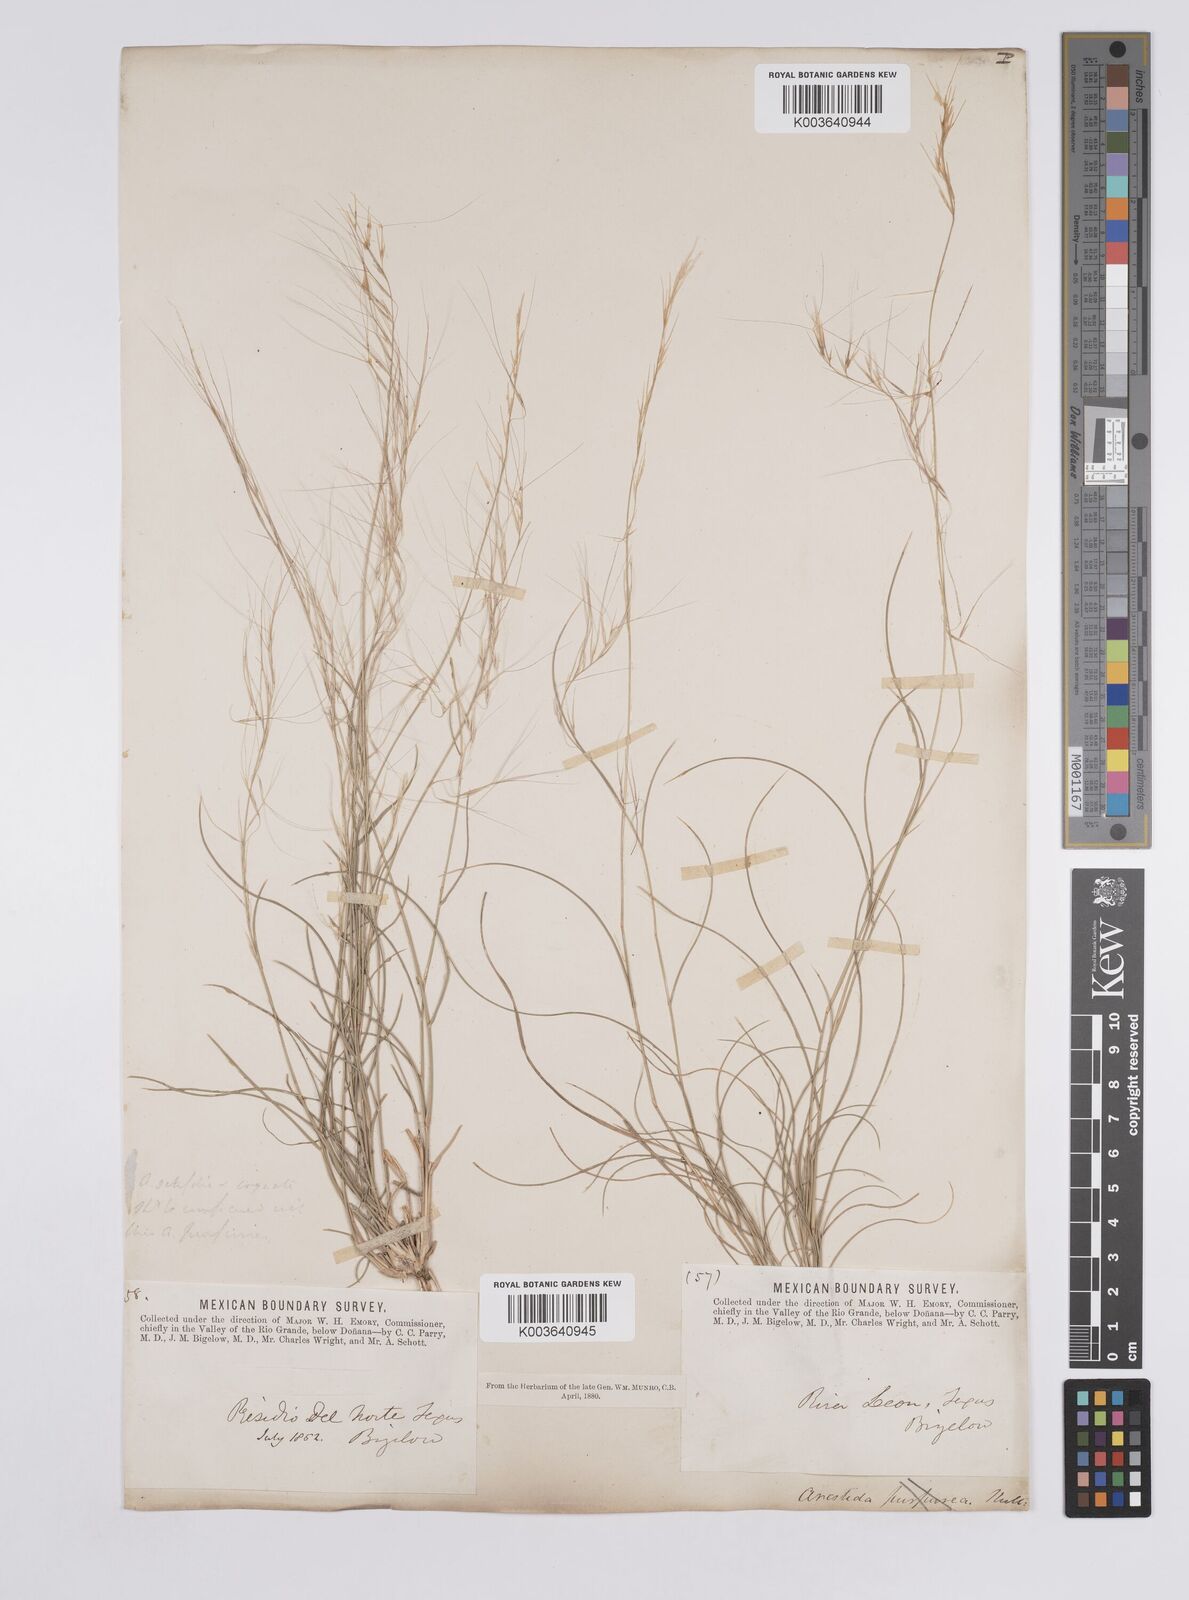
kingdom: Plantae
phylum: Tracheophyta
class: Liliopsida
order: Poales
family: Poaceae
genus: Aristida
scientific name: Aristida purpurea
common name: Purple threeawn
